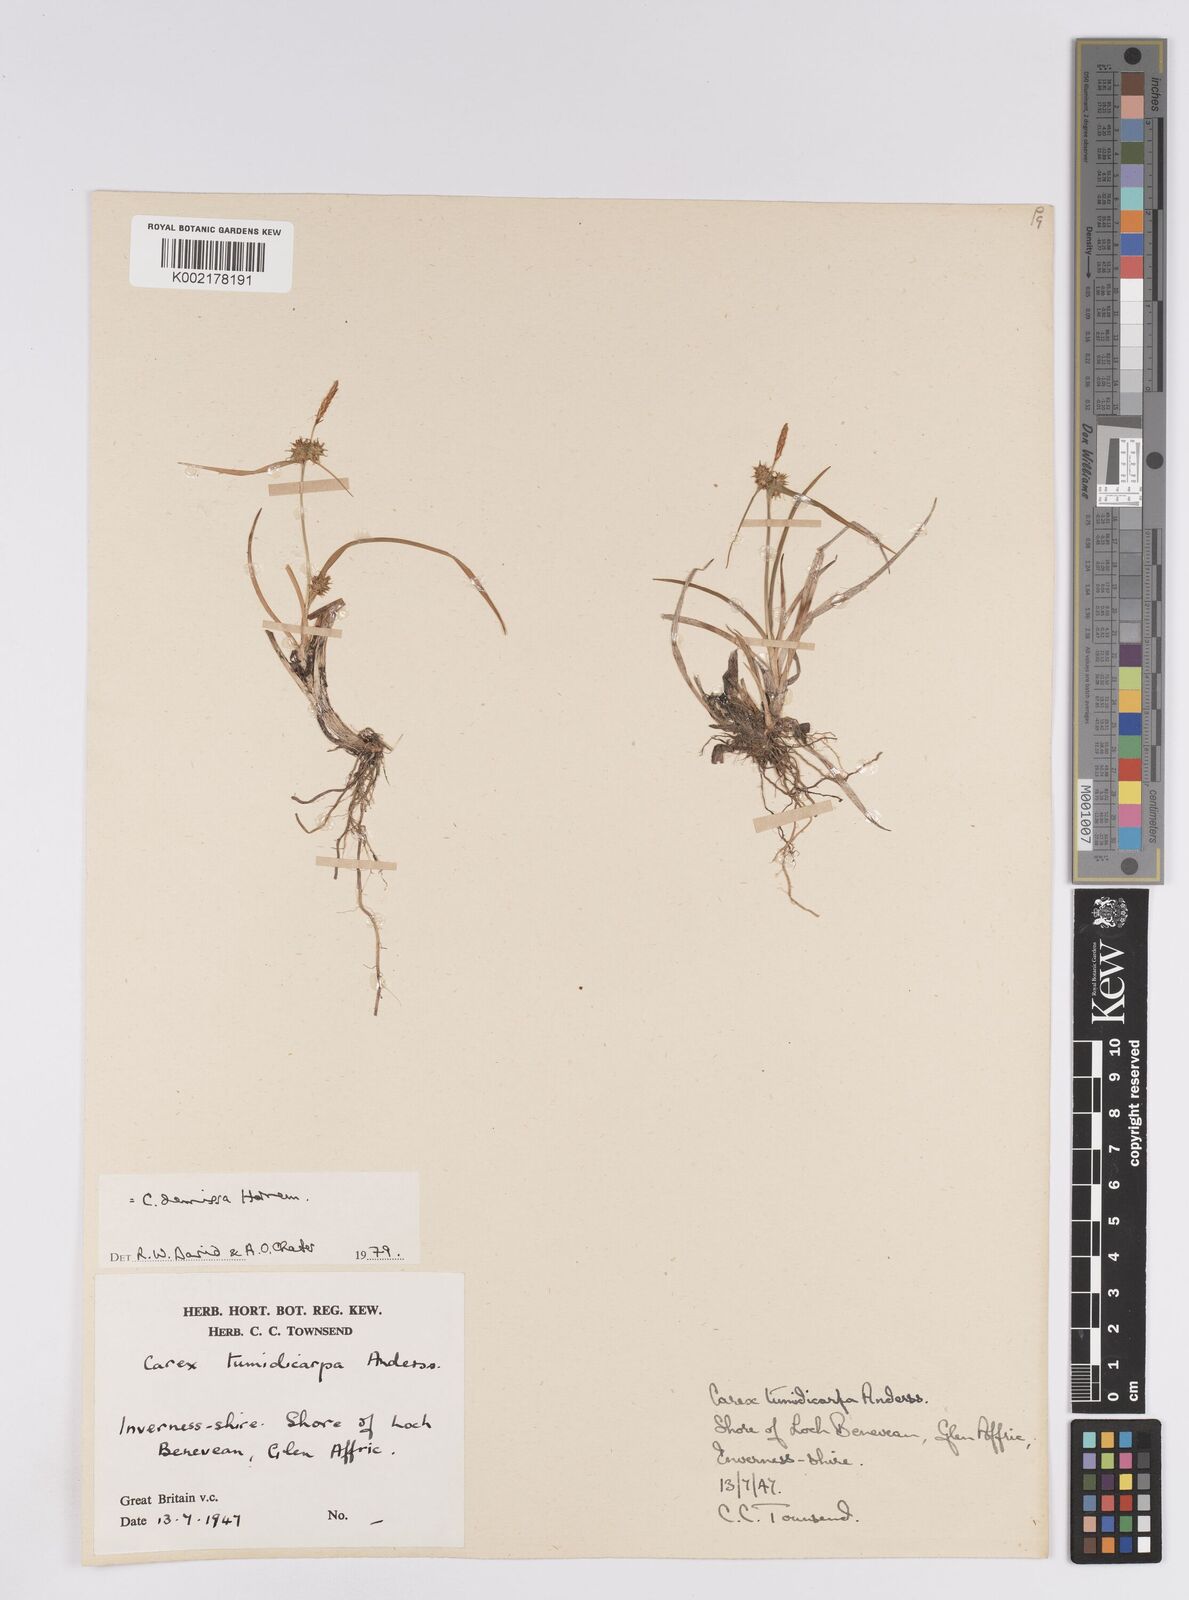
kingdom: Plantae
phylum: Tracheophyta
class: Liliopsida
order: Poales
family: Cyperaceae
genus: Carex
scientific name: Carex demissa
